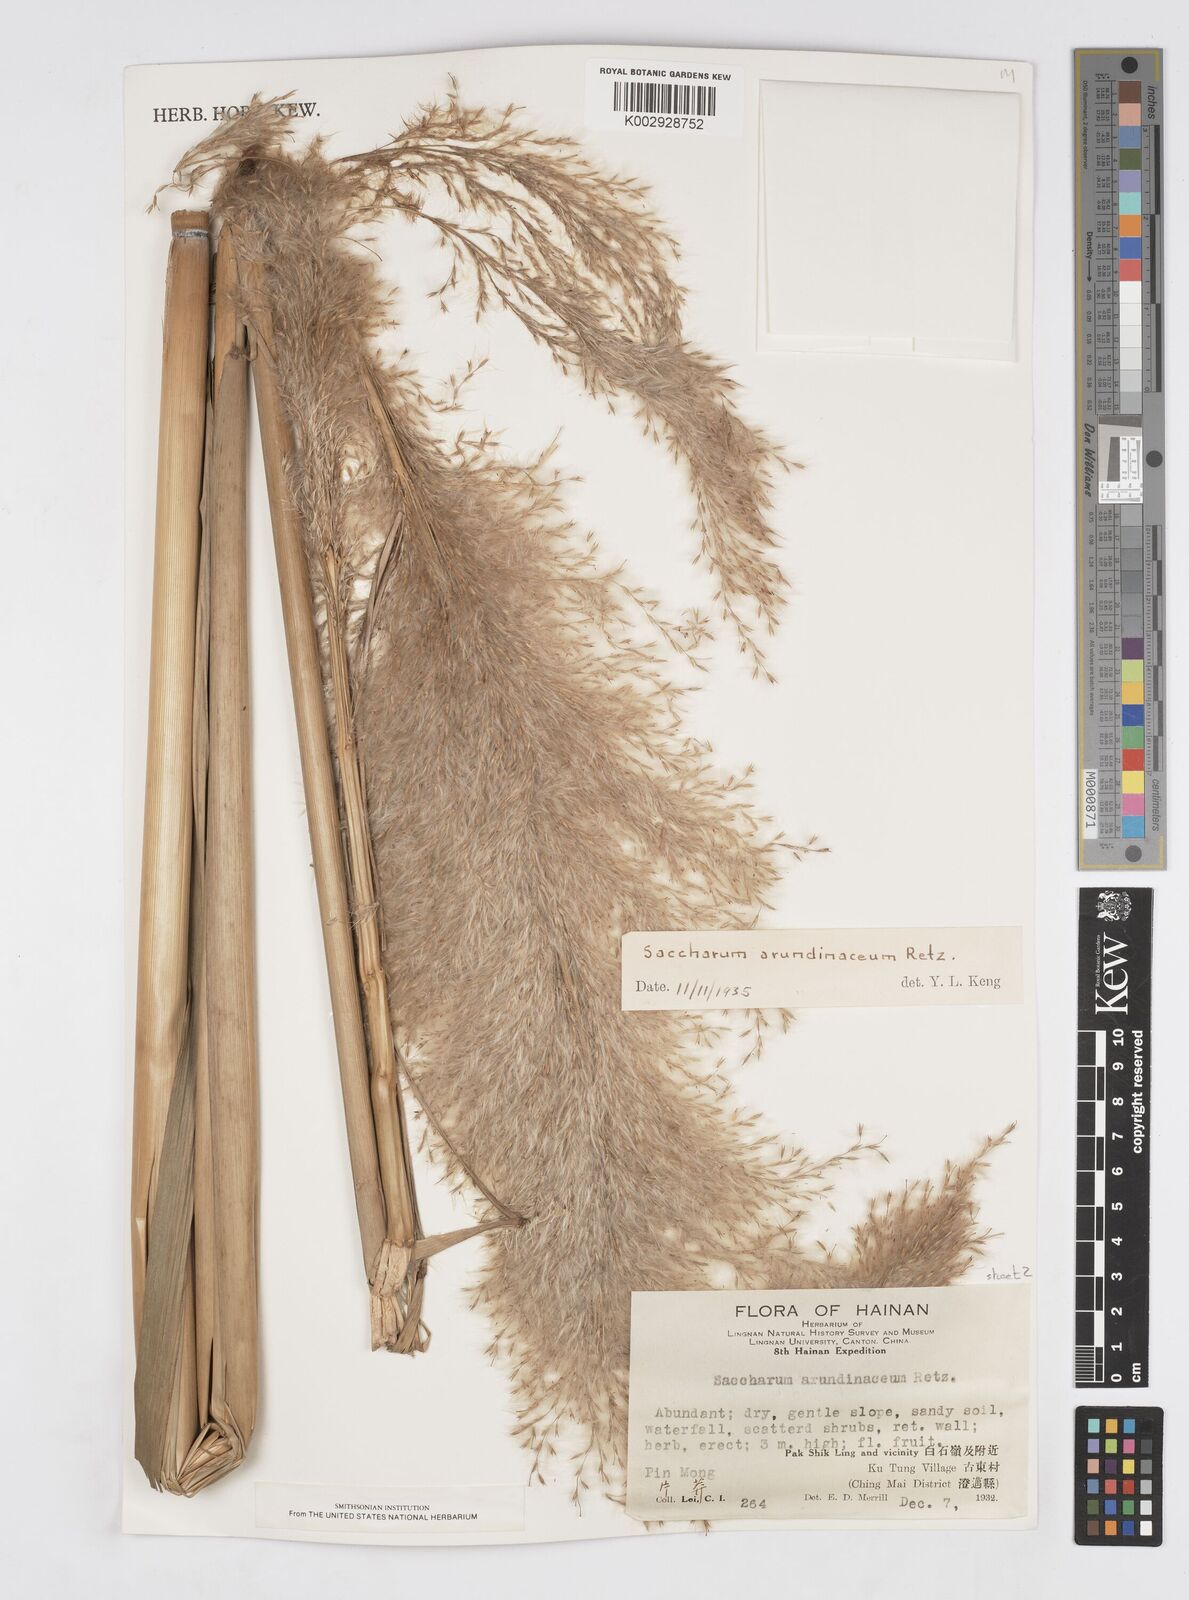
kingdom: Plantae
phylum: Tracheophyta
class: Liliopsida
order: Poales
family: Poaceae
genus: Tripidium
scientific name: Tripidium arundinaceum
